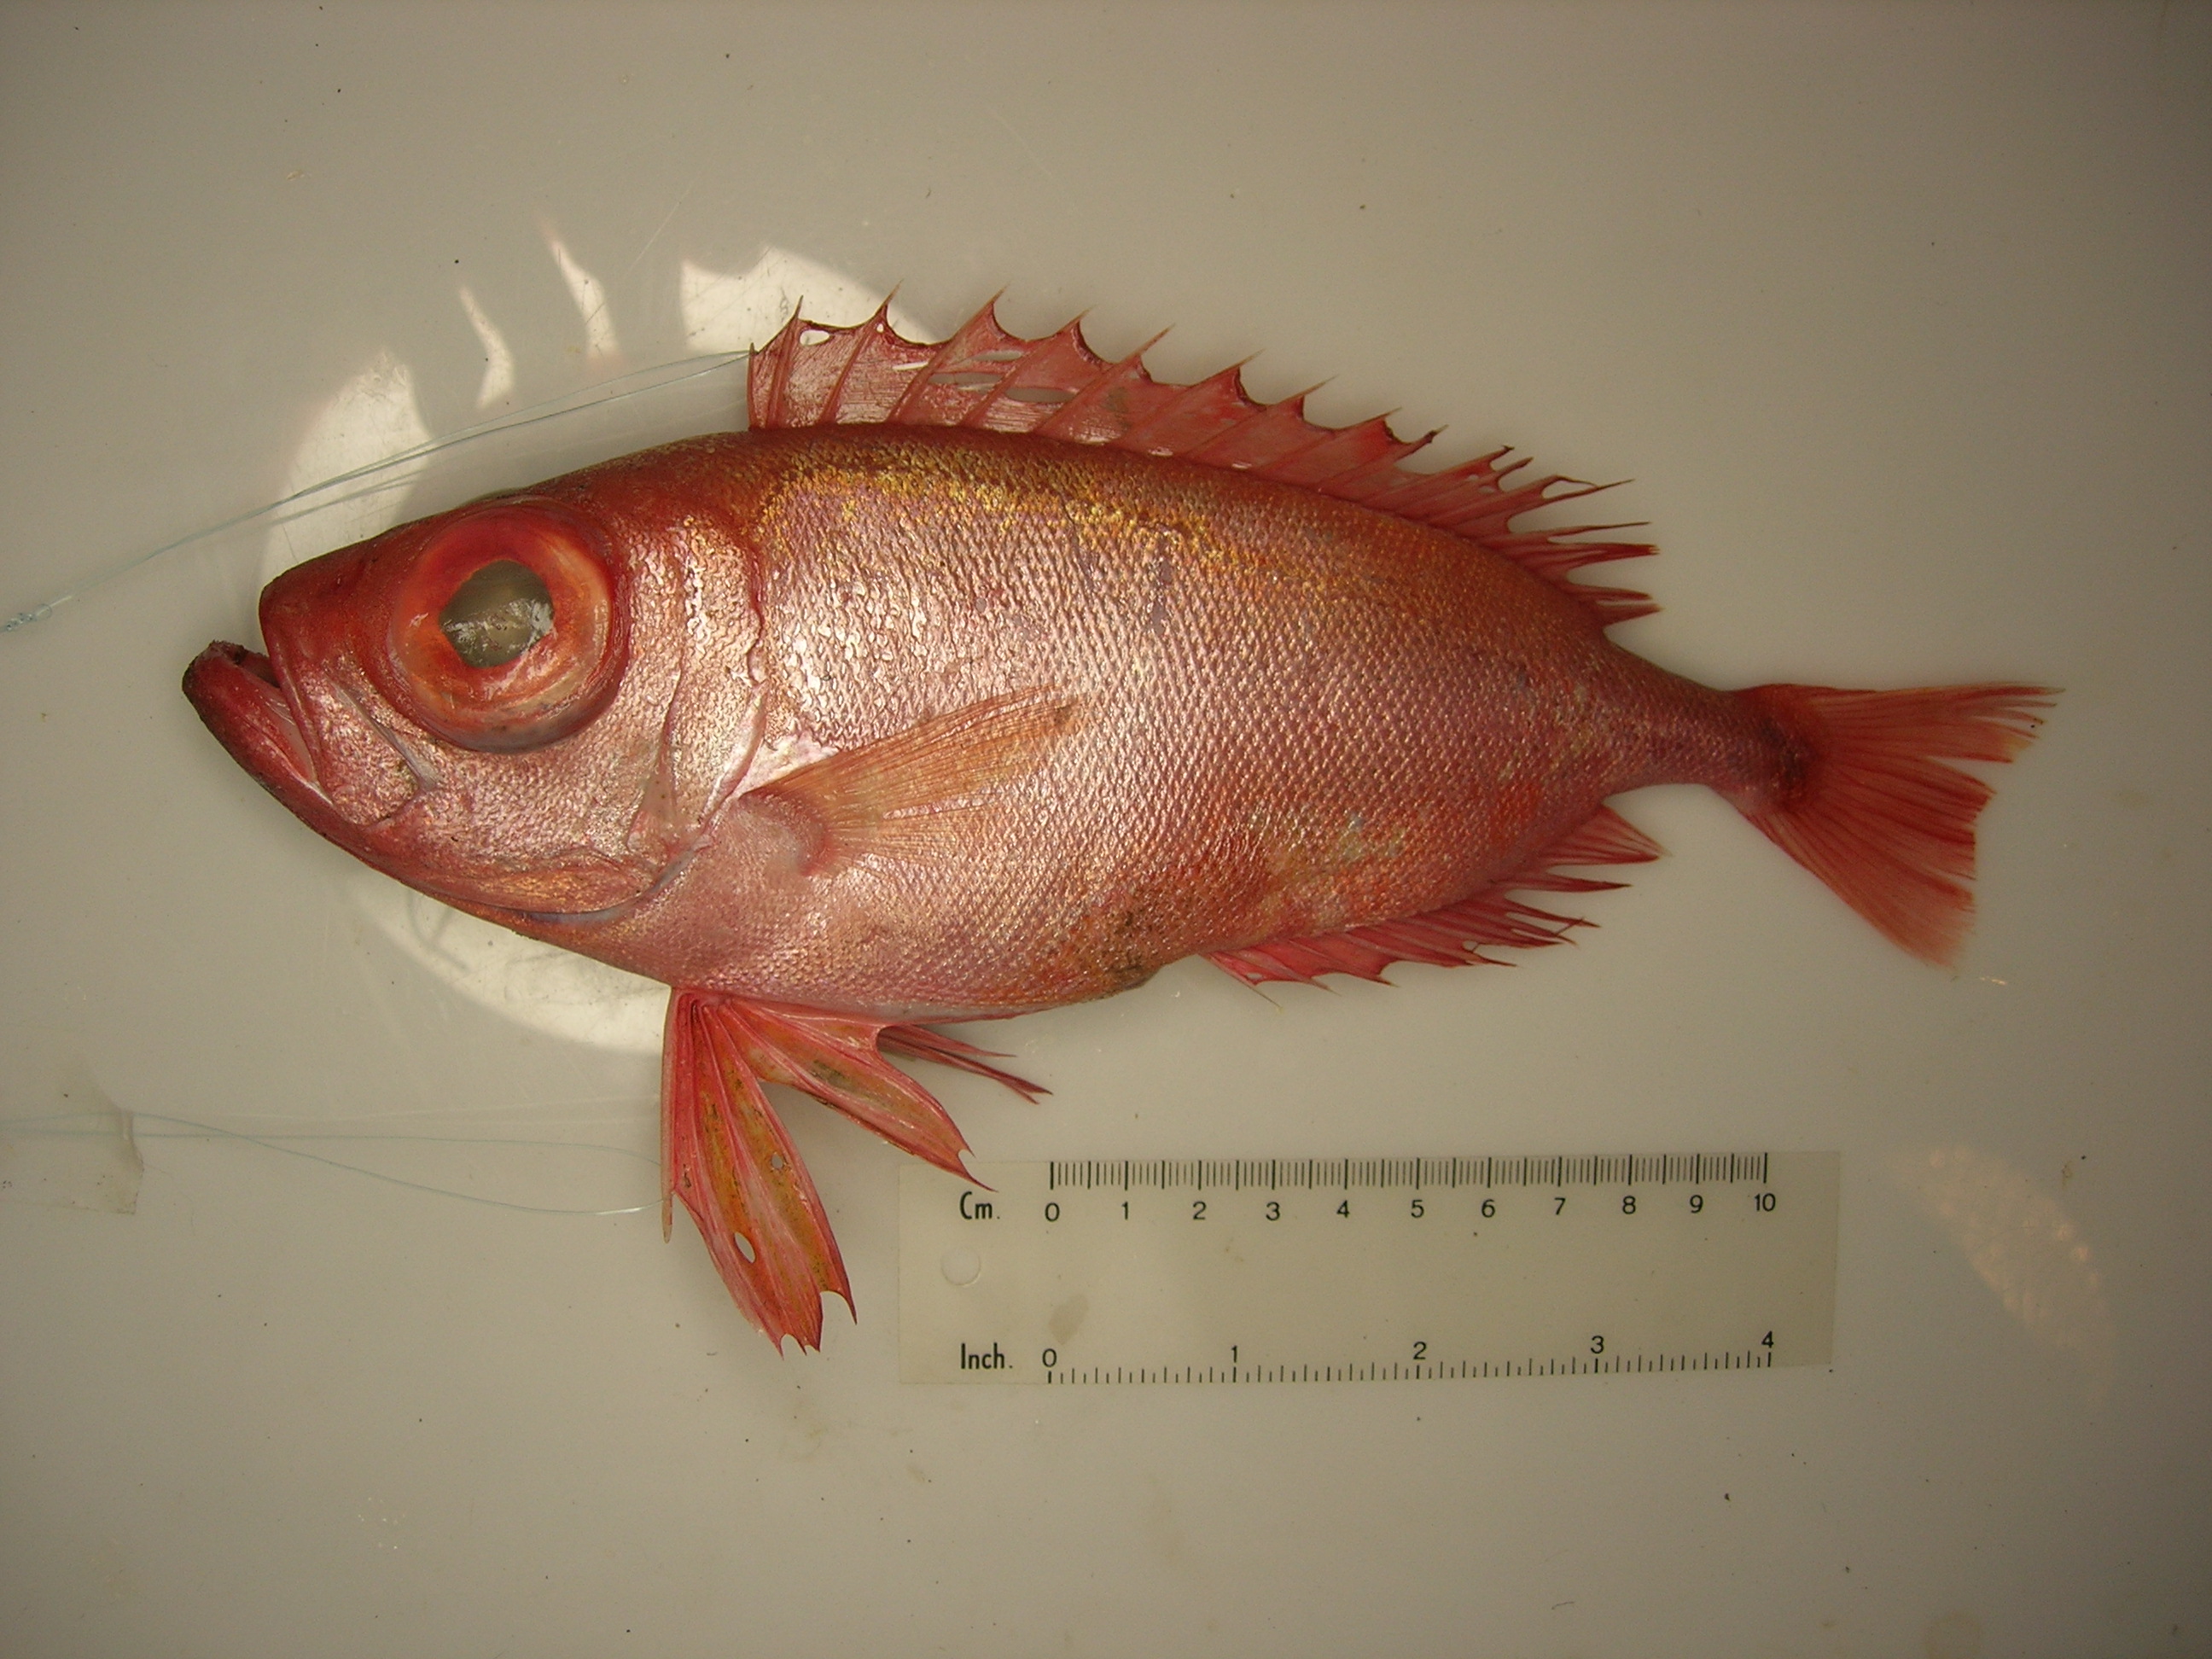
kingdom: Animalia
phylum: Chordata
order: Perciformes
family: Priacanthidae
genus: Priacanthus
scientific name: Priacanthus hamrur
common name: Moontail bullseye
